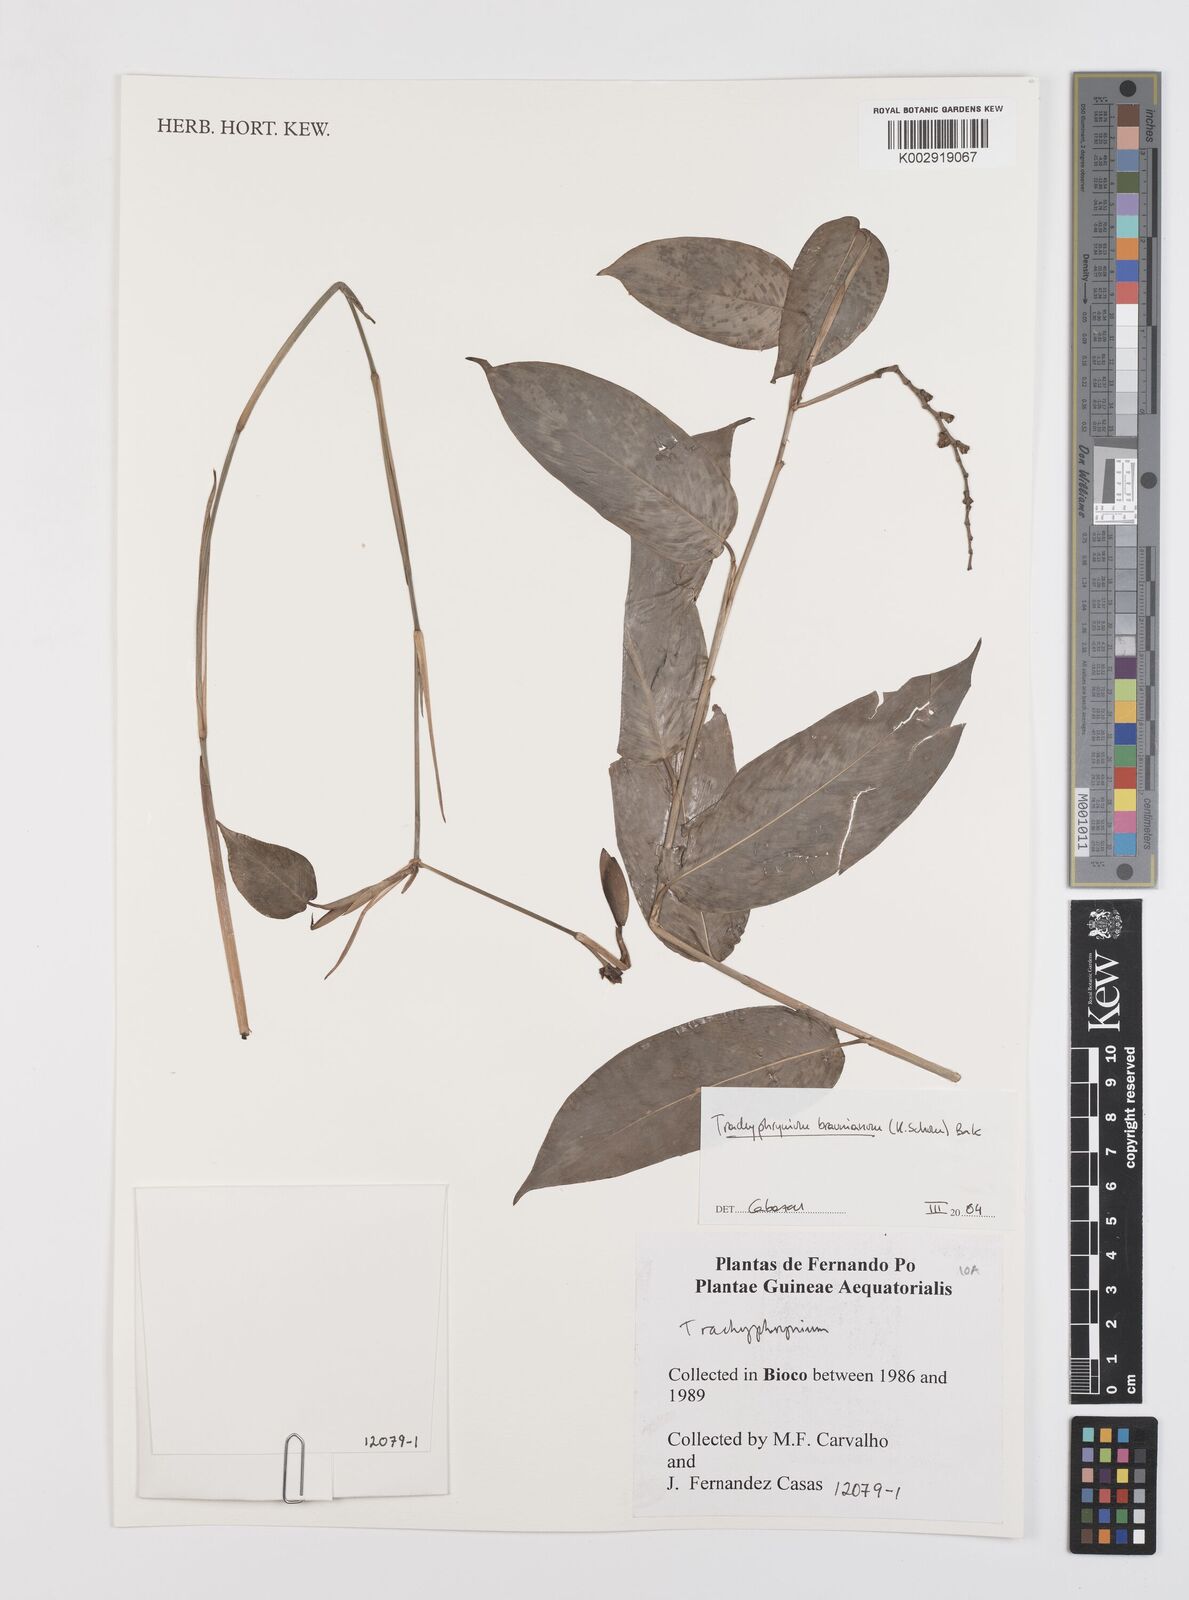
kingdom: Plantae
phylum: Tracheophyta
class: Liliopsida
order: Zingiberales
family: Marantaceae
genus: Trachyphrynium
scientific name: Trachyphrynium braunianum
